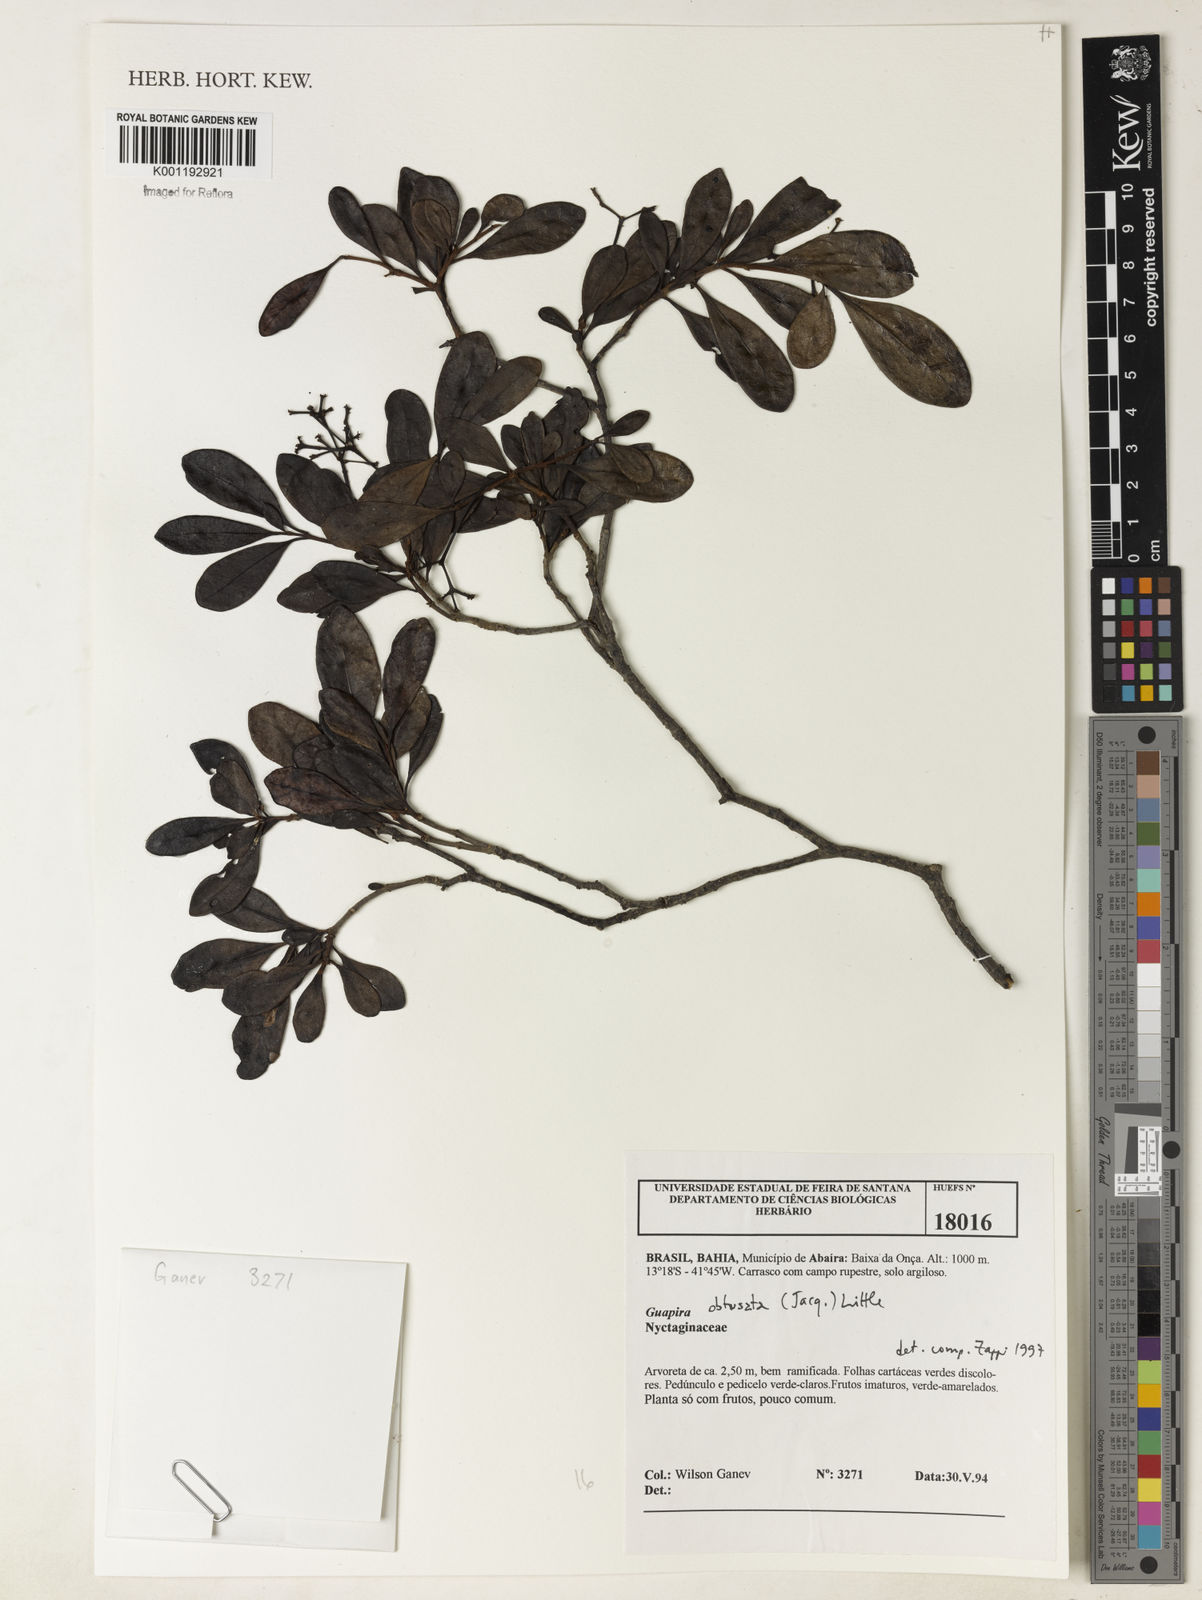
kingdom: Plantae
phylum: Tracheophyta
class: Magnoliopsida
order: Caryophyllales
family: Nyctaginaceae
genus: Guapira
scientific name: Guapira obtusata
